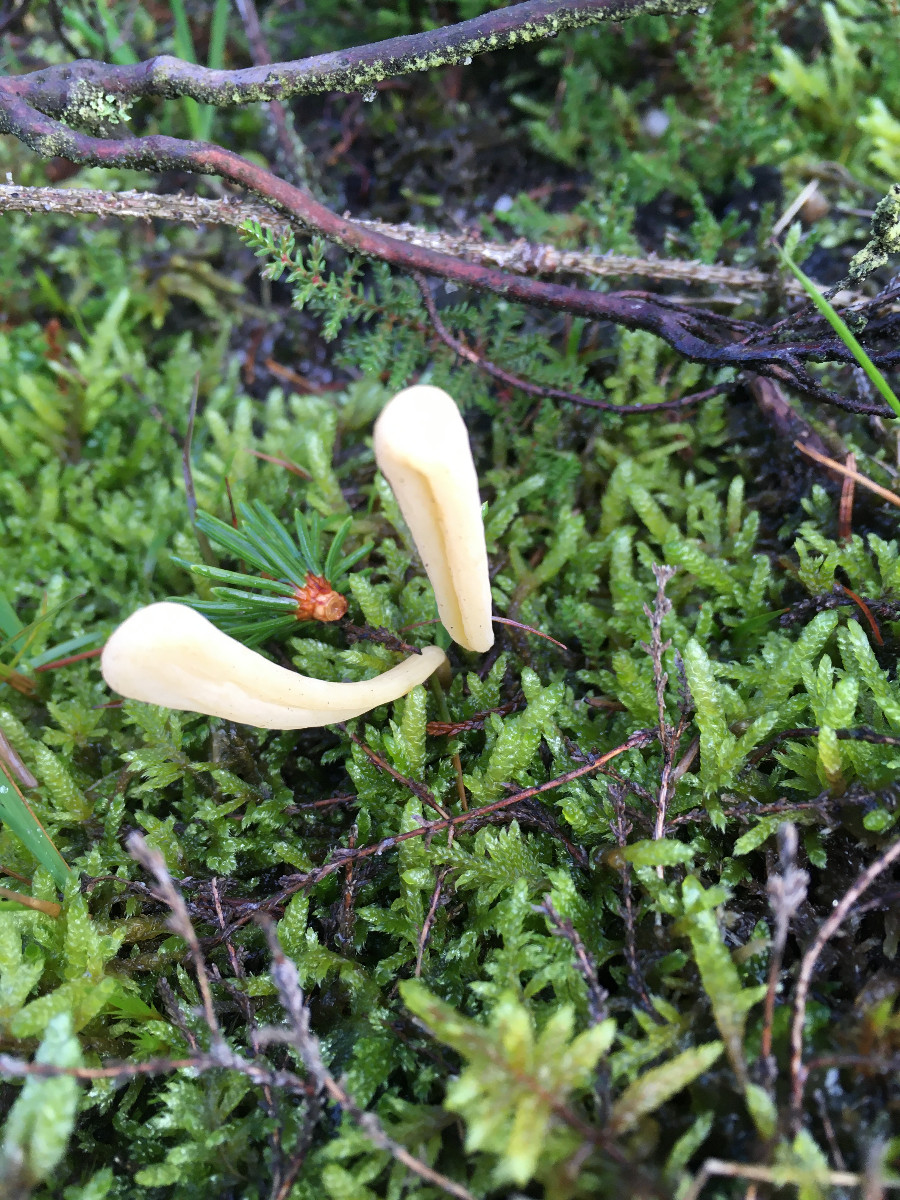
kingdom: Fungi
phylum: Basidiomycota
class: Agaricomycetes
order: Agaricales
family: Clavariaceae
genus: Clavaria
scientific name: Clavaria argillacea
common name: lerfarvet køllesvamp
